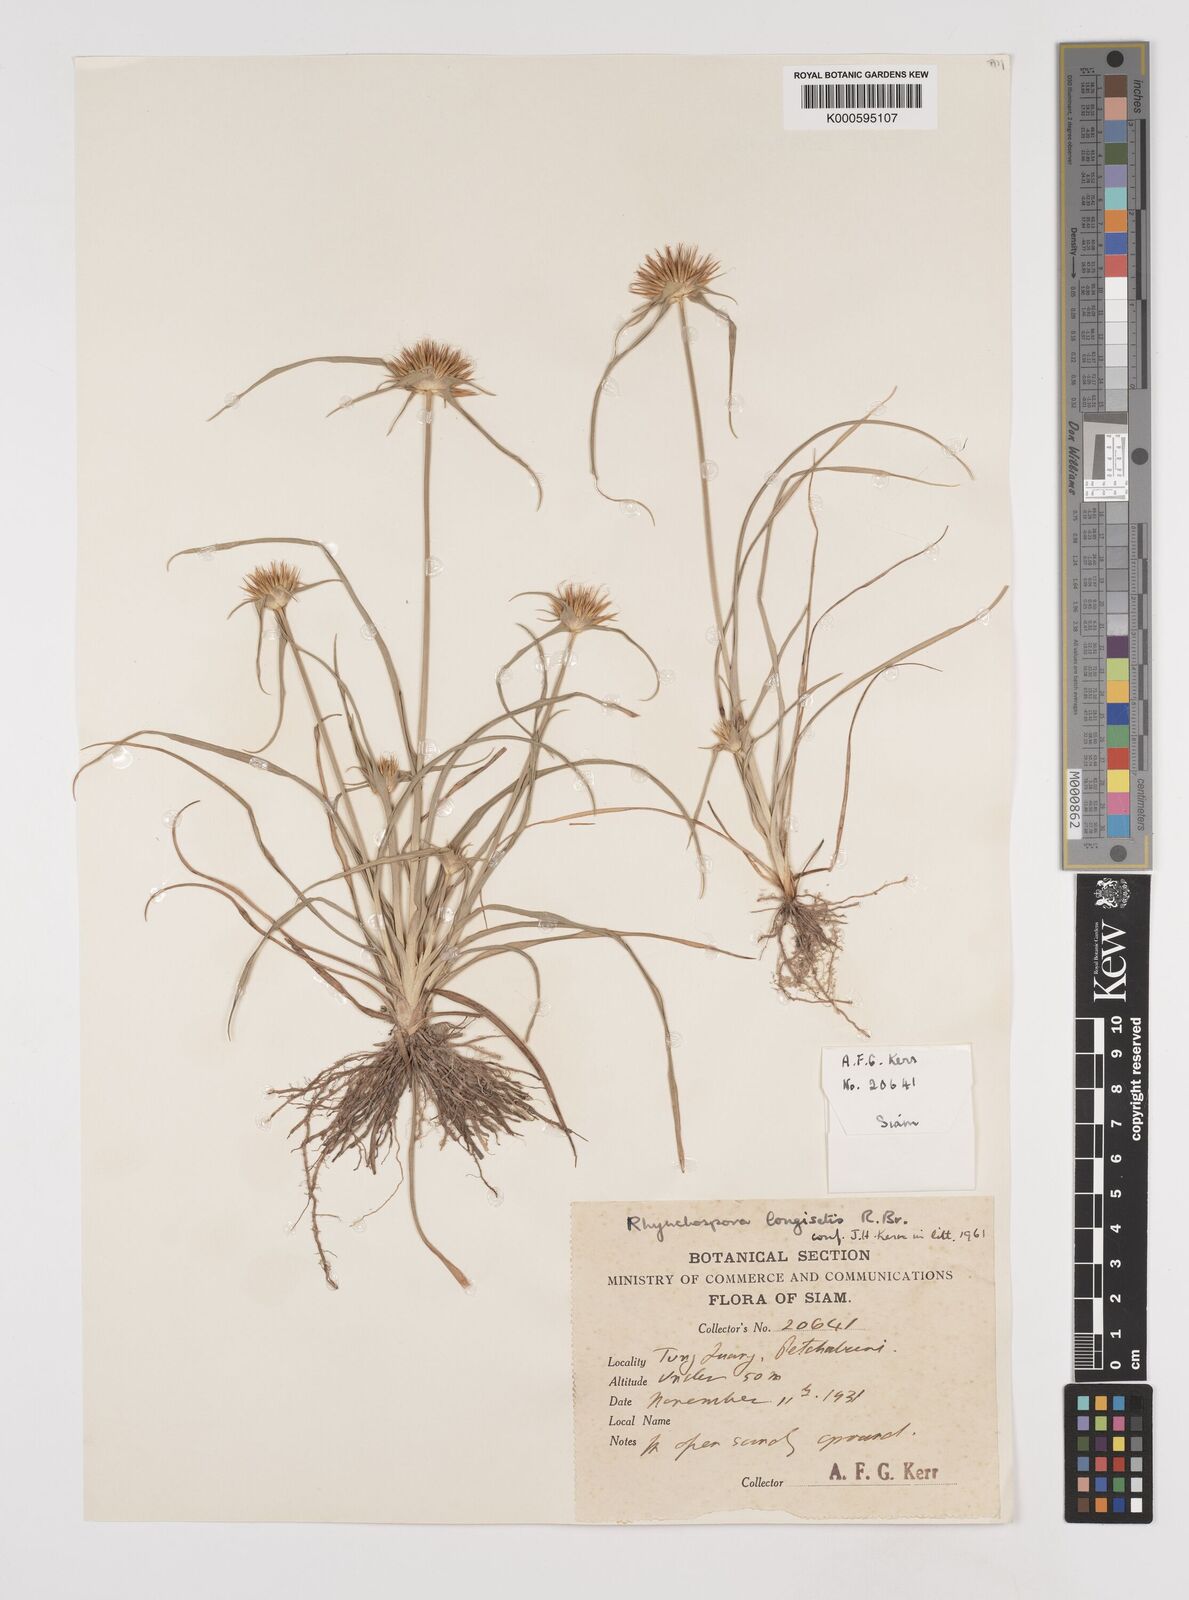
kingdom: Plantae
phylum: Tracheophyta
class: Liliopsida
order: Poales
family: Cyperaceae
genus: Rhynchospora
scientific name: Rhynchospora longisetis
